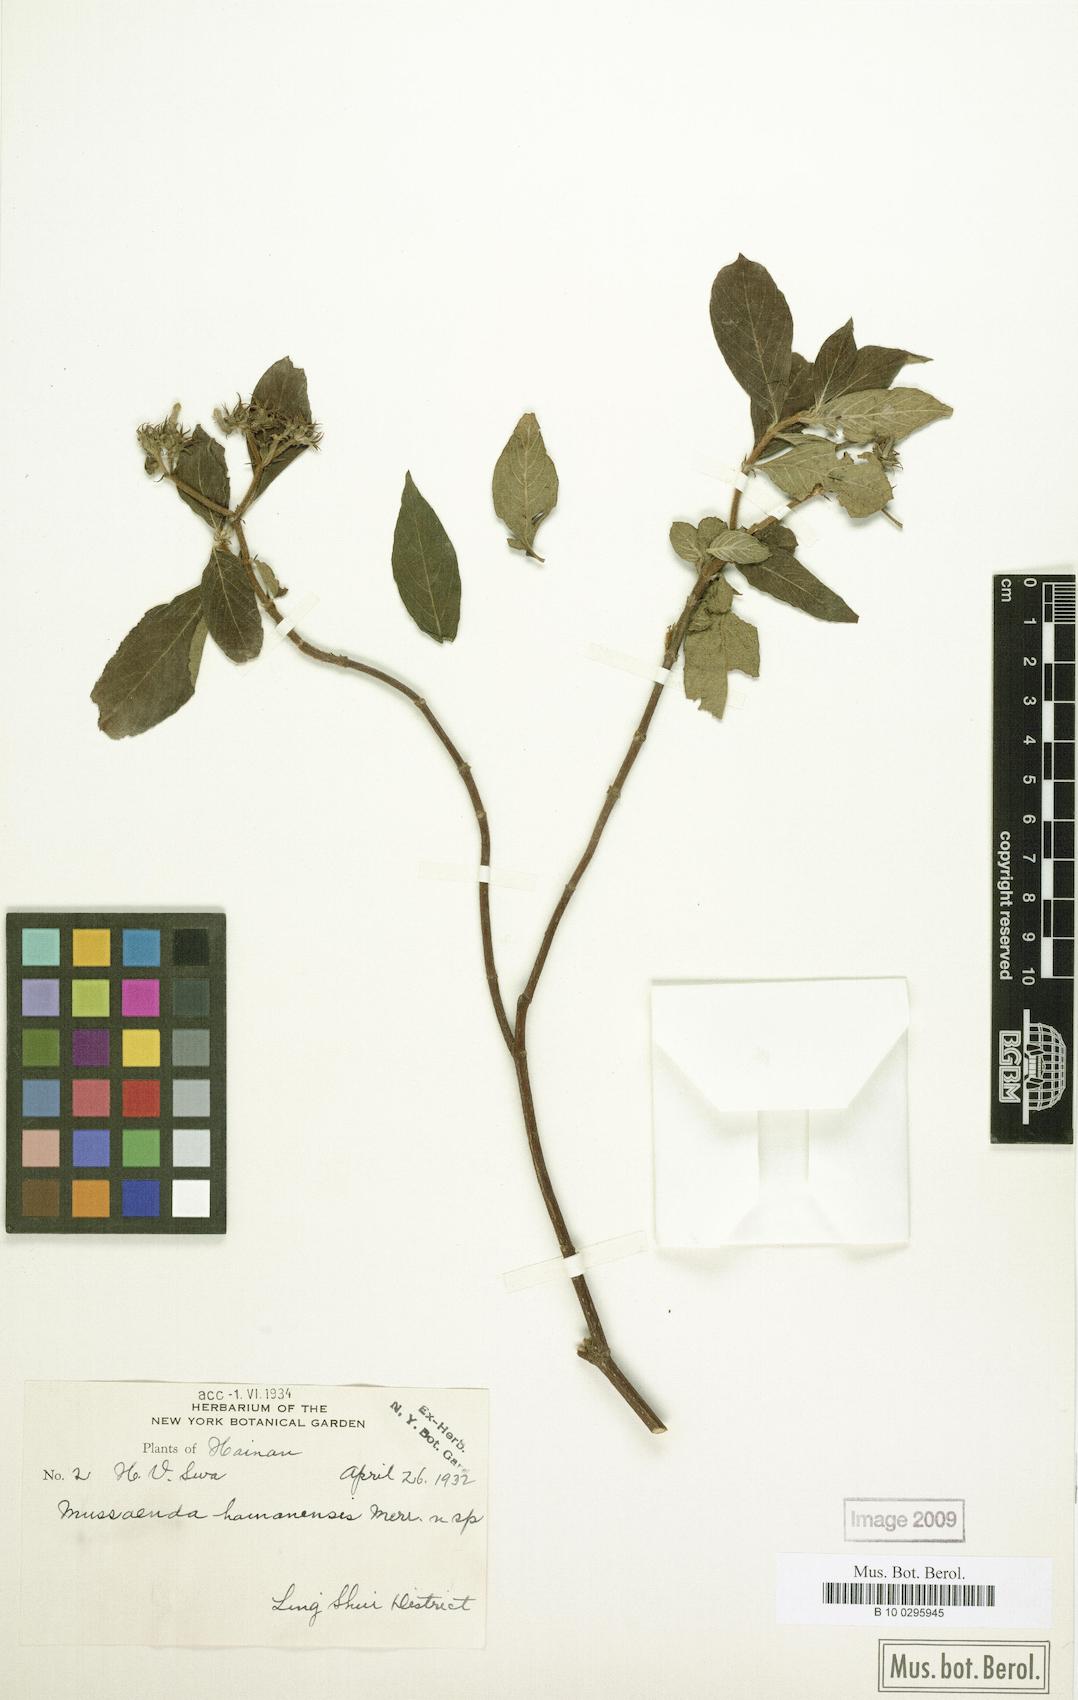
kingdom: Plantae
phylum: Tracheophyta
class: Magnoliopsida
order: Gentianales
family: Rubiaceae
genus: Mussaenda
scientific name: Mussaenda hainanensis
